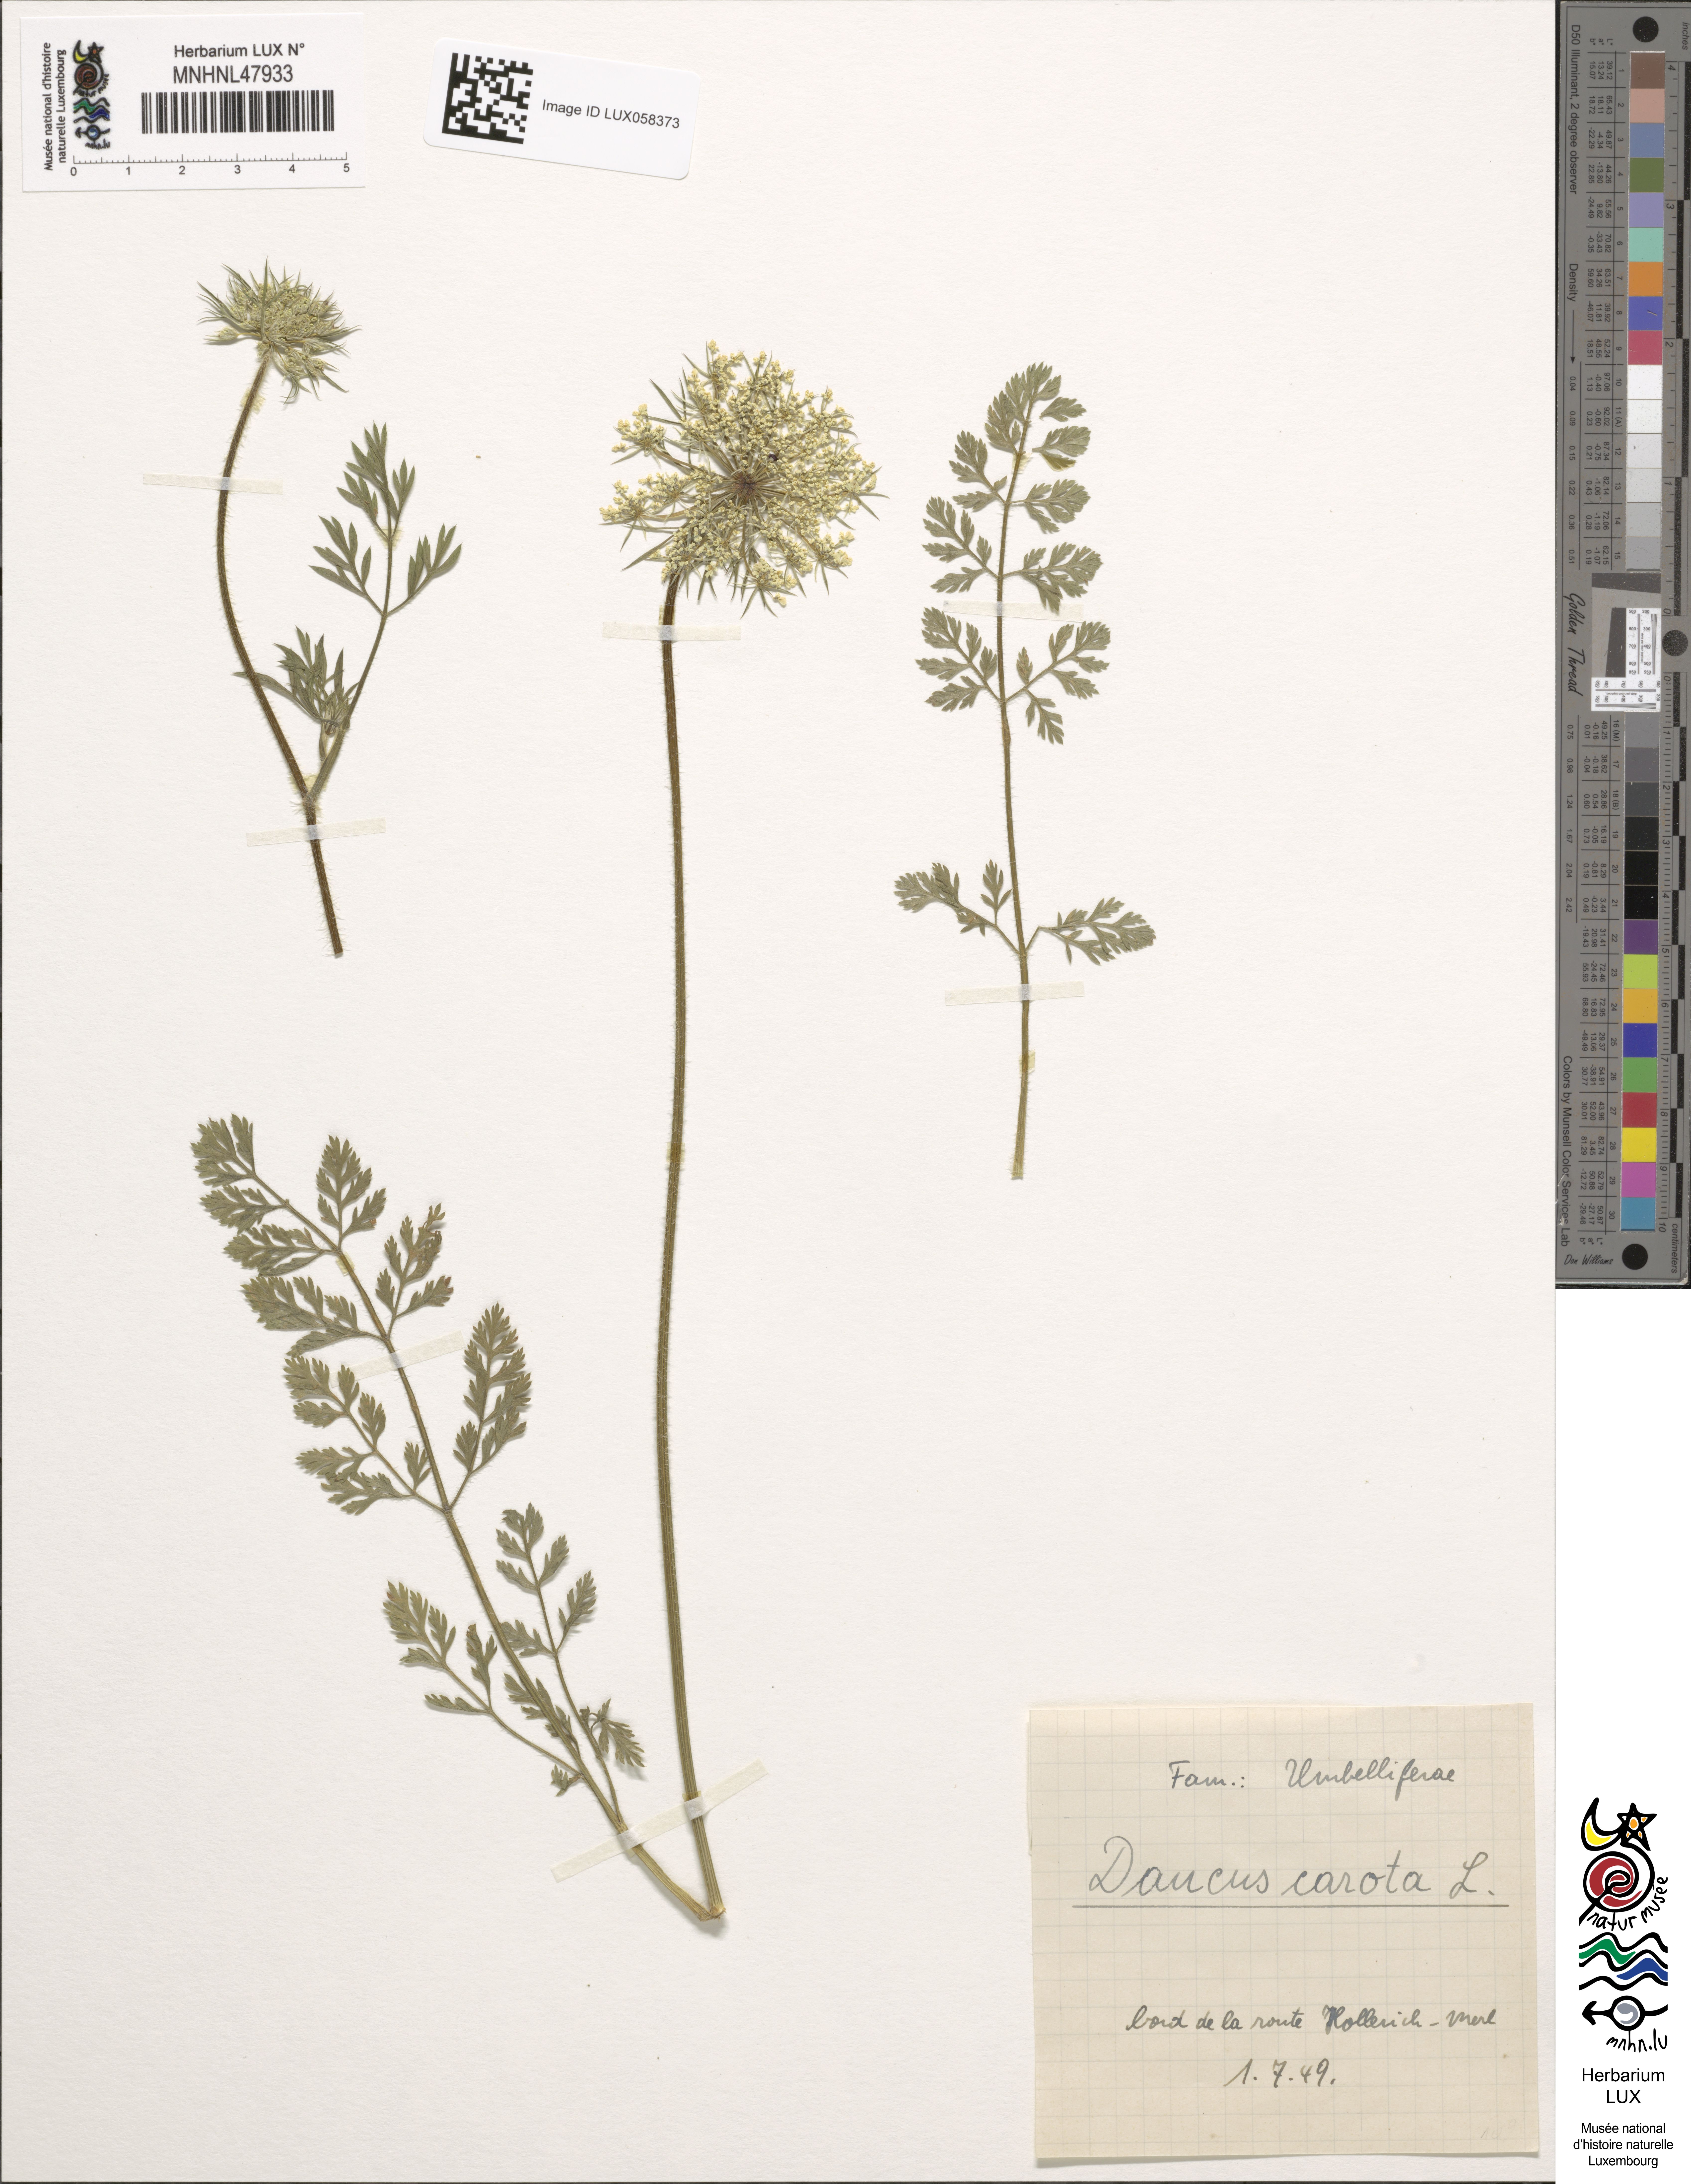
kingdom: Plantae
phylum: Tracheophyta
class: Magnoliopsida
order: Apiales
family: Apiaceae
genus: Daucus
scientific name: Daucus carota
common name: Wild carrot
